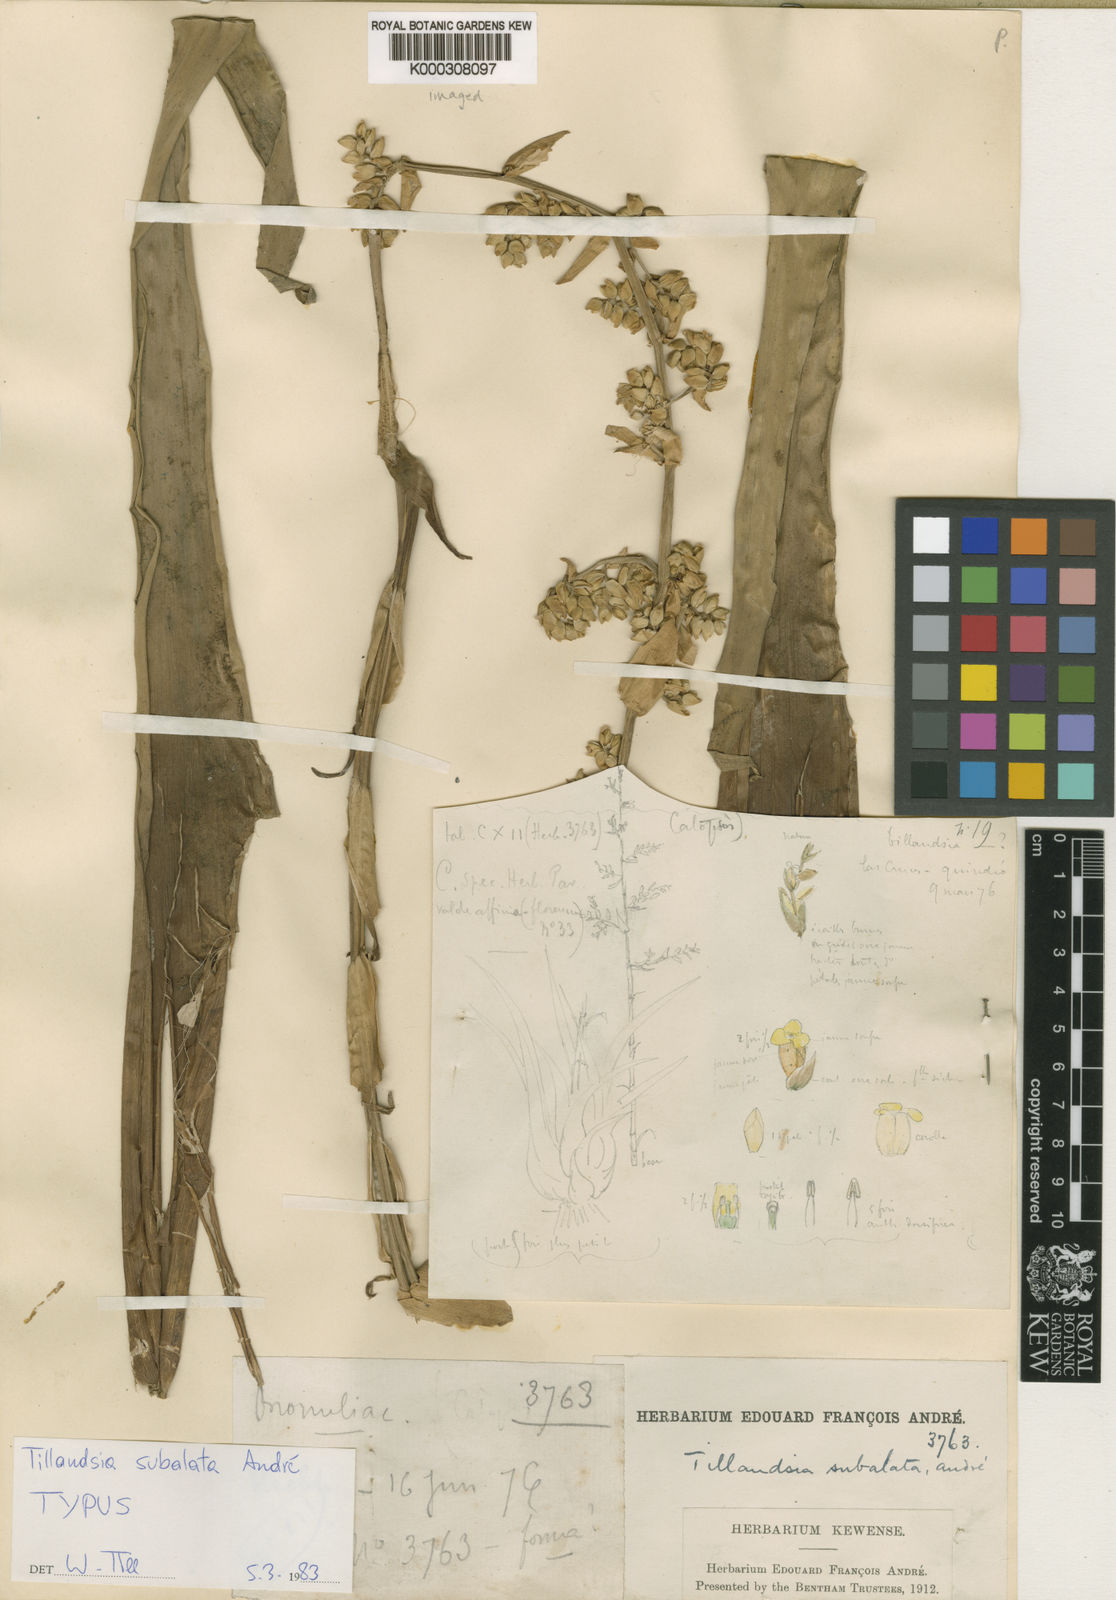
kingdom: Plantae
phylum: Tracheophyta
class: Liliopsida
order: Poales
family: Bromeliaceae
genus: Tillandsia
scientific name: Tillandsia
